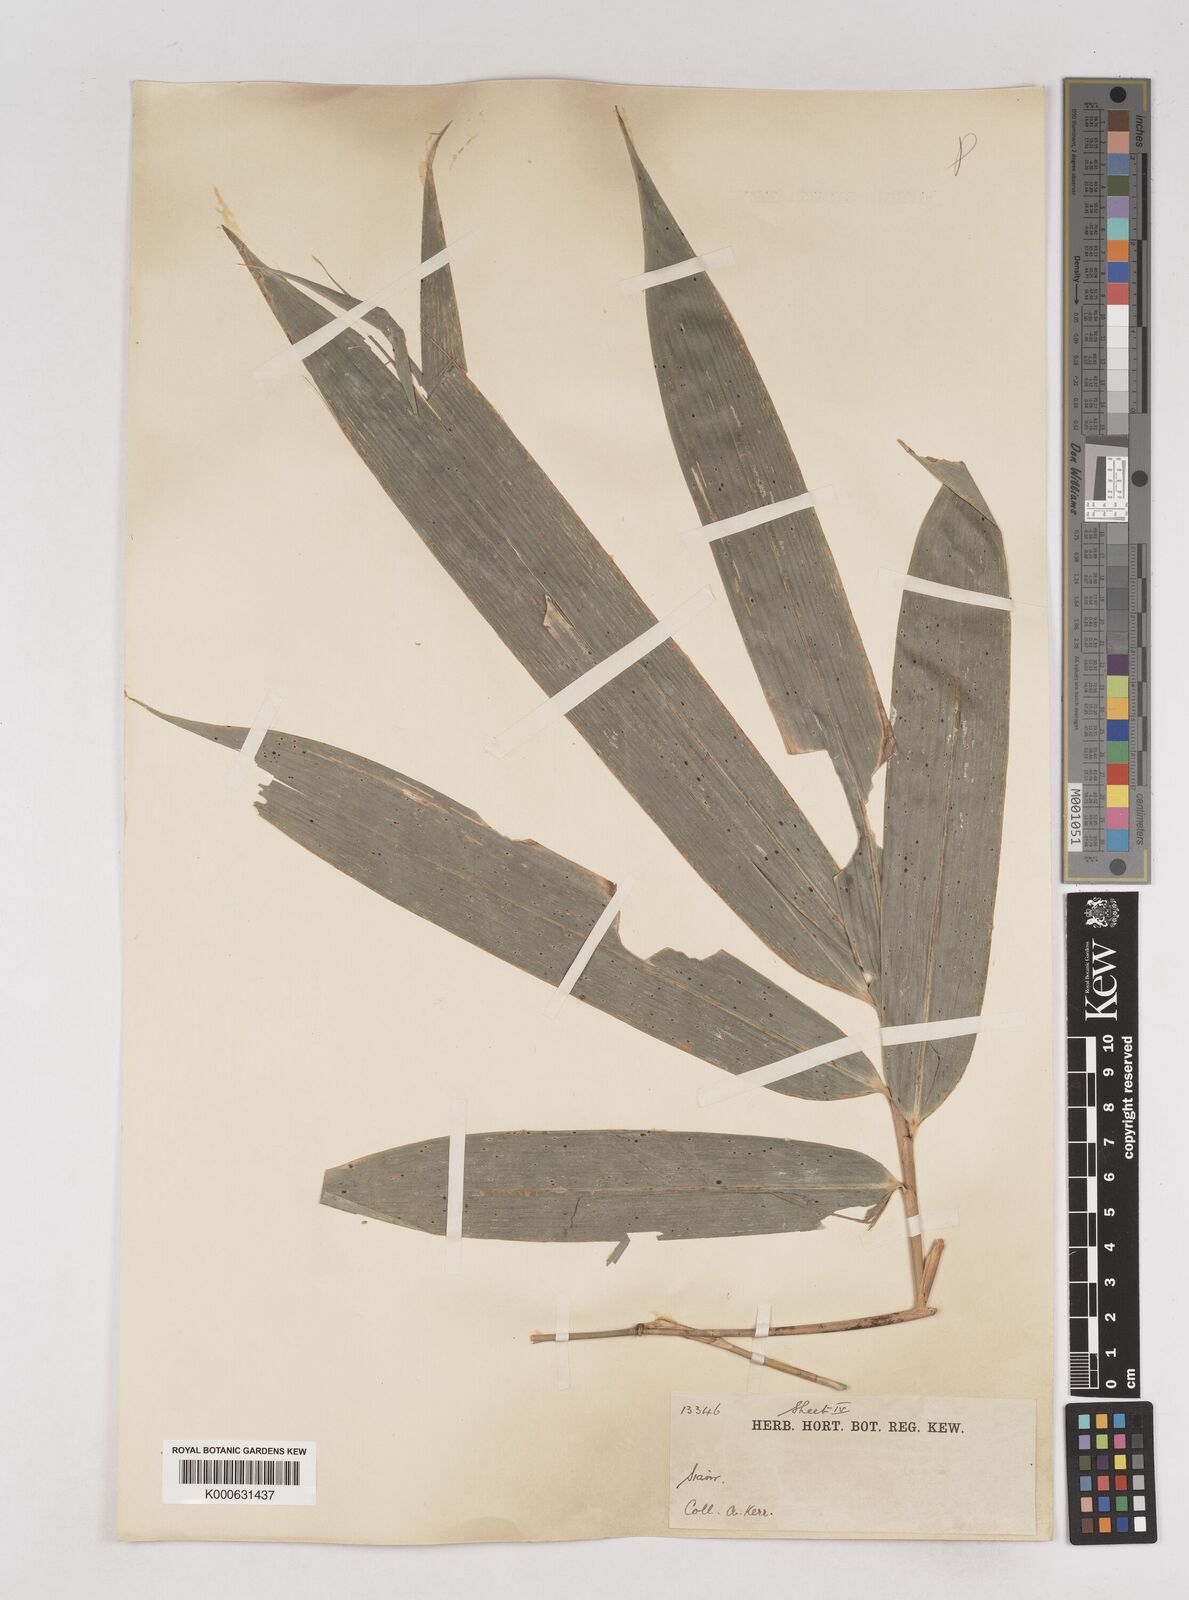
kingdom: Plantae
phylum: Tracheophyta
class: Liliopsida
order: Poales
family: Poaceae
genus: Schizostachyum
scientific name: Schizostachyum grande
